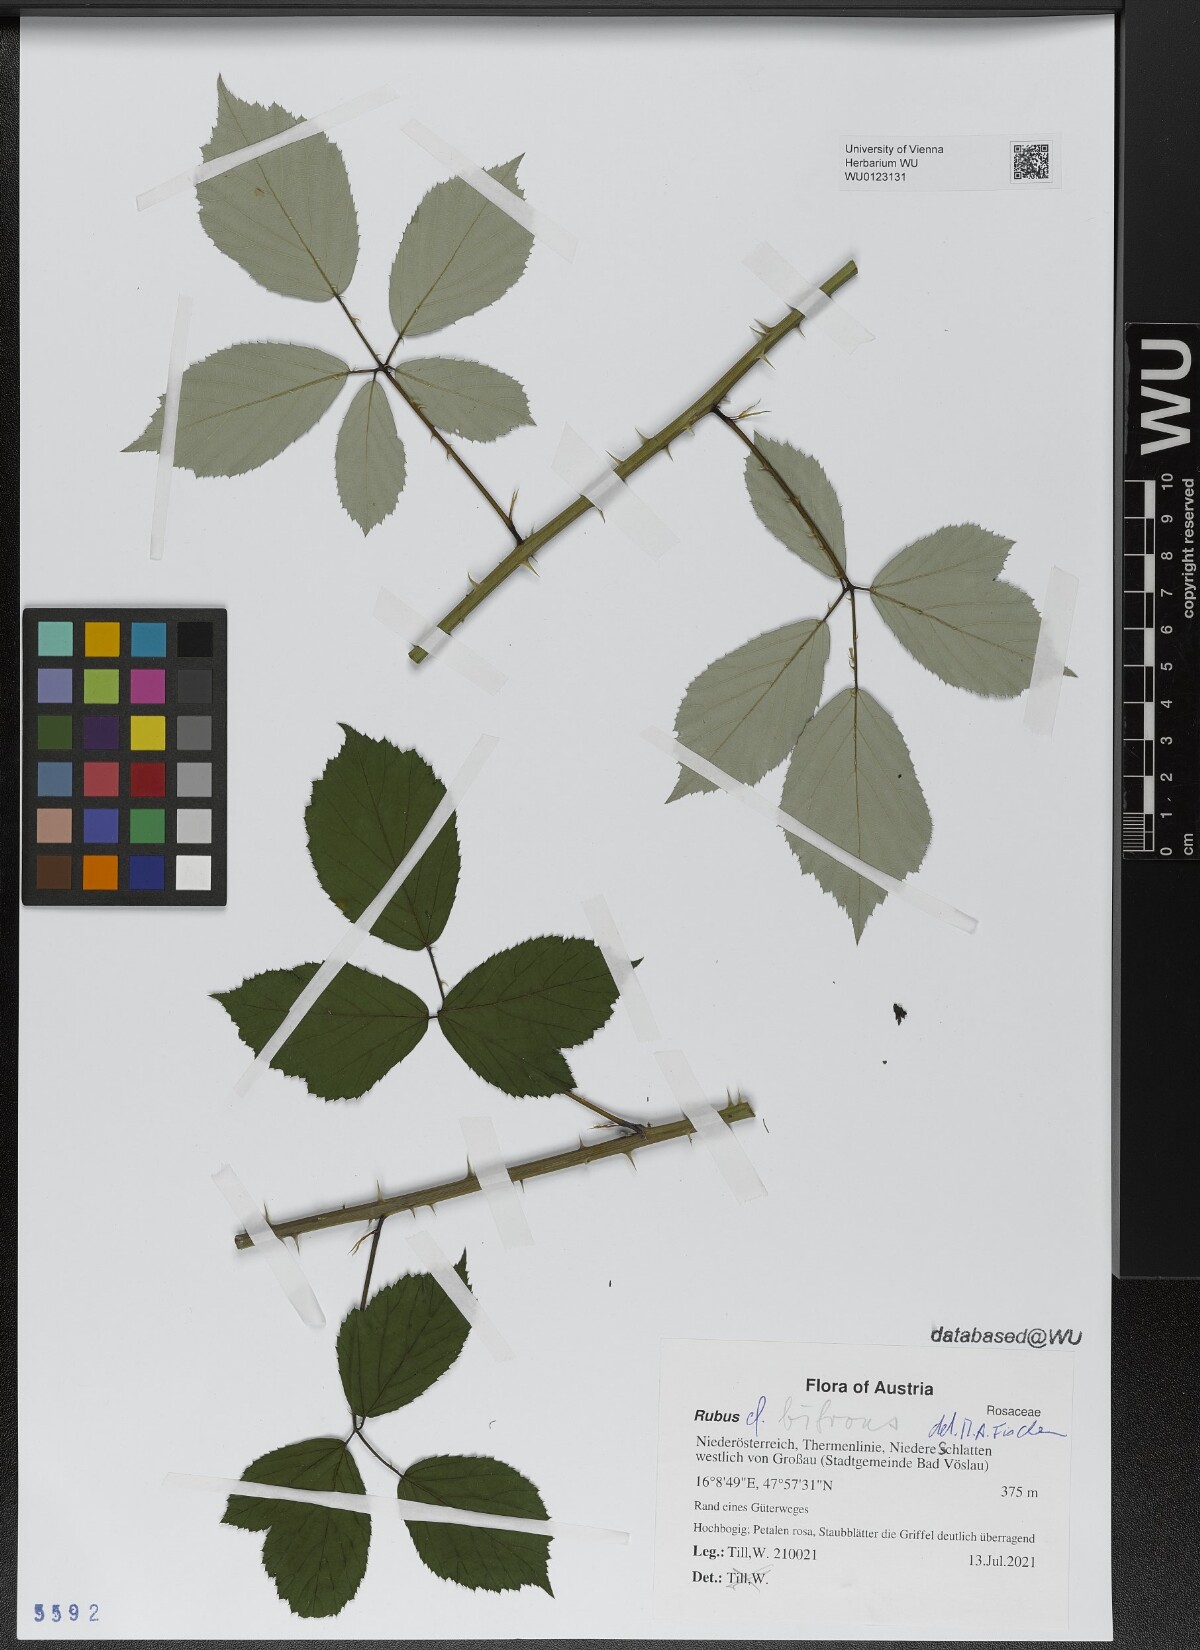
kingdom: Plantae
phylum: Tracheophyta
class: Magnoliopsida
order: Rosales
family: Rosaceae
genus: Rubus
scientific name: Rubus bifrons
